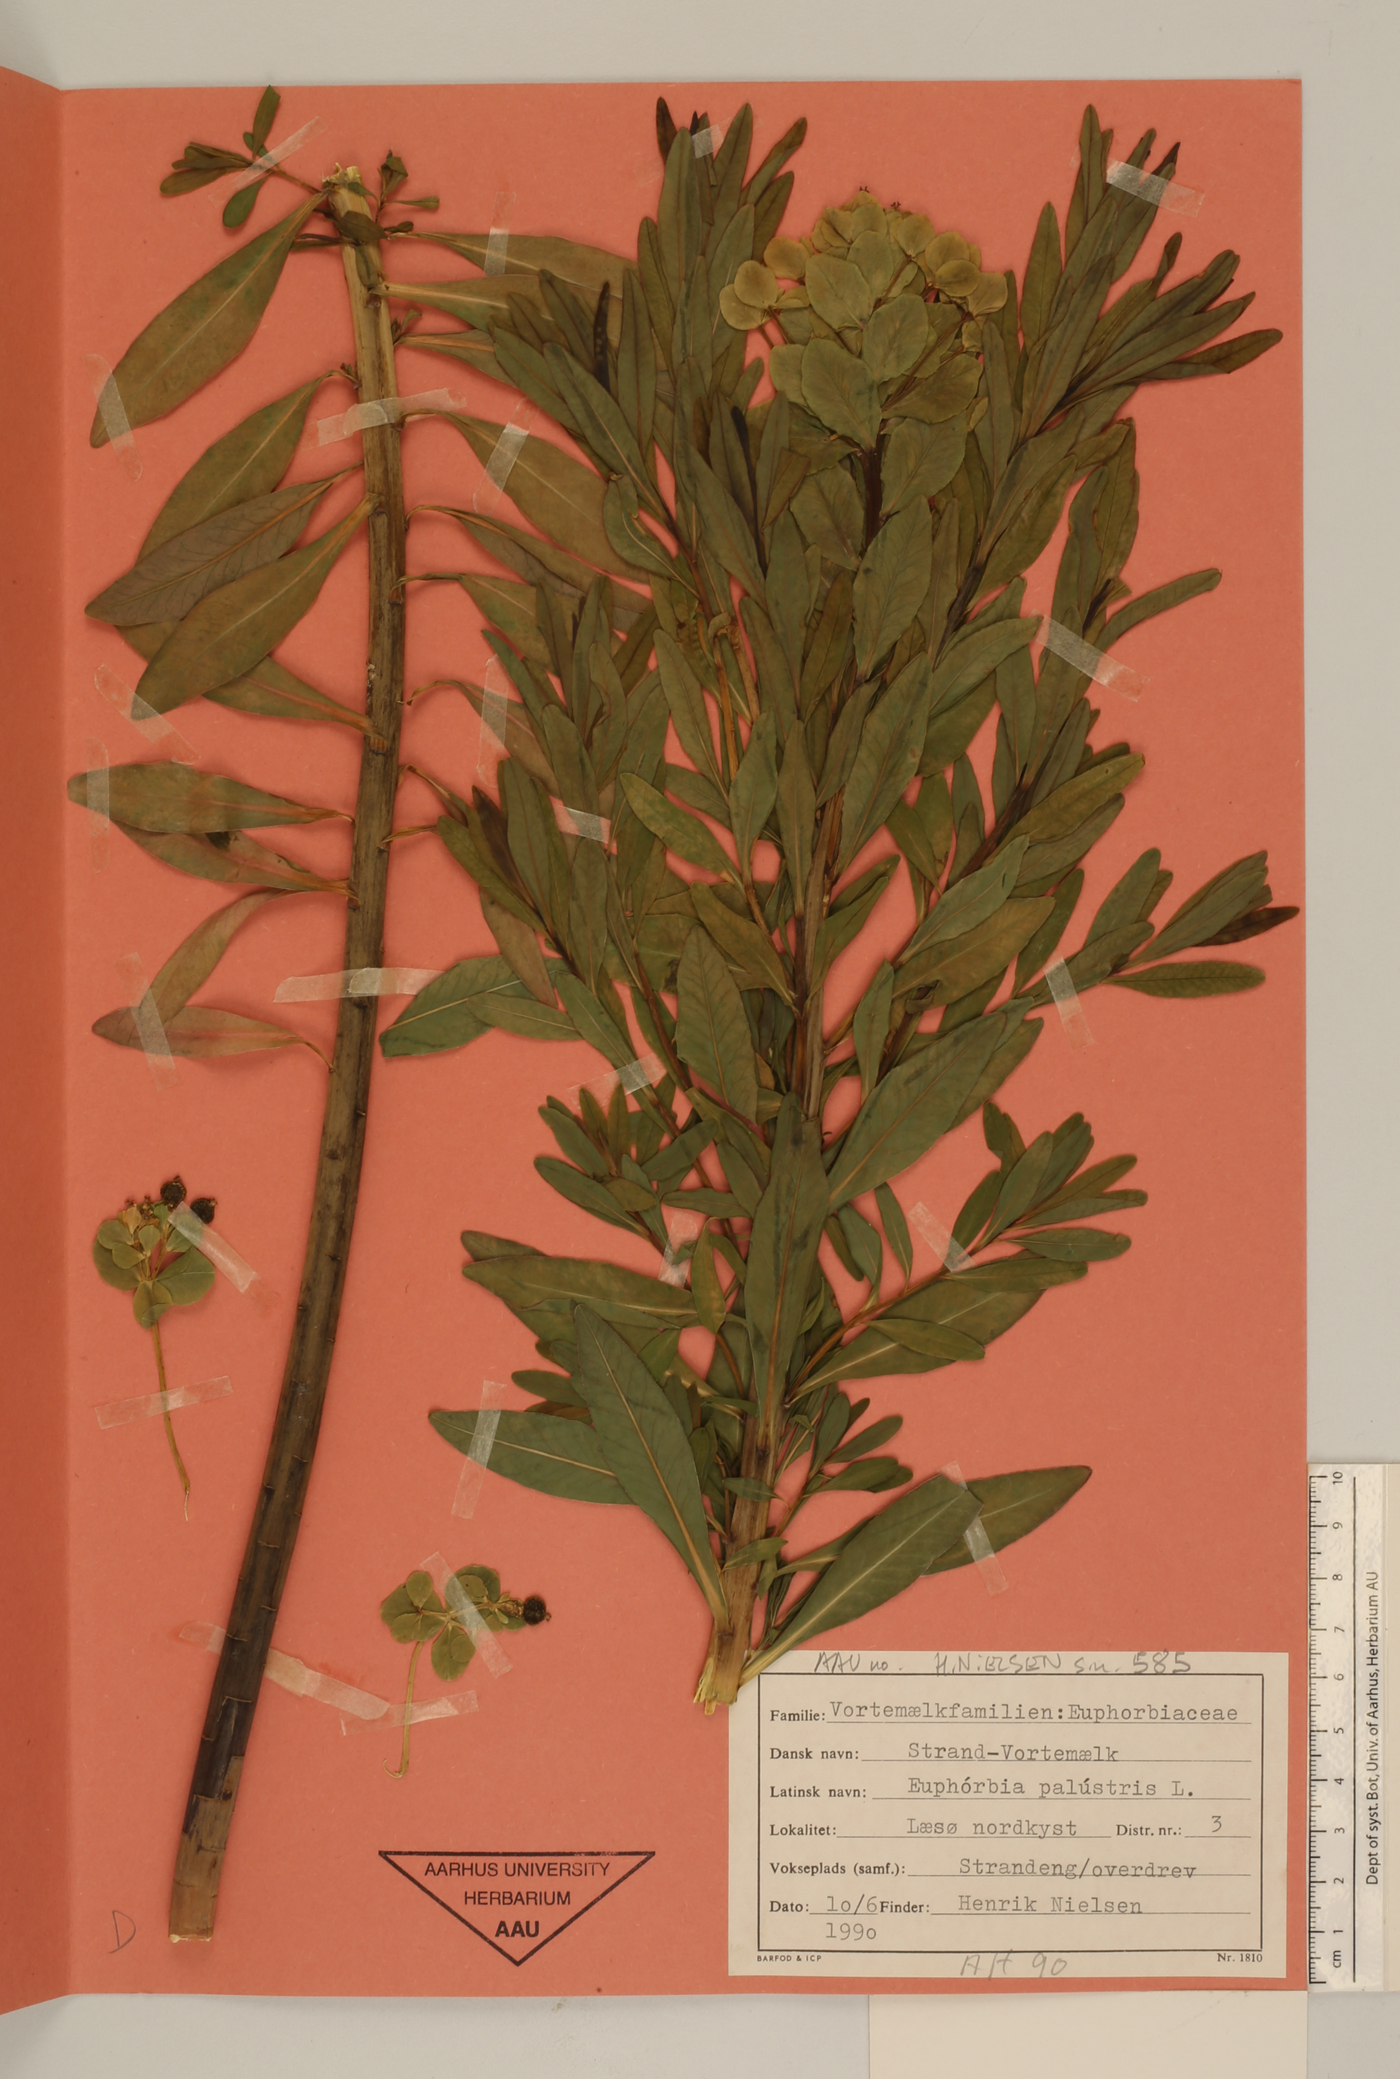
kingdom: Plantae
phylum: Tracheophyta
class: Magnoliopsida
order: Malpighiales
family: Euphorbiaceae
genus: Euphorbia
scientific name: Euphorbia palustris
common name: Marsh spurge
